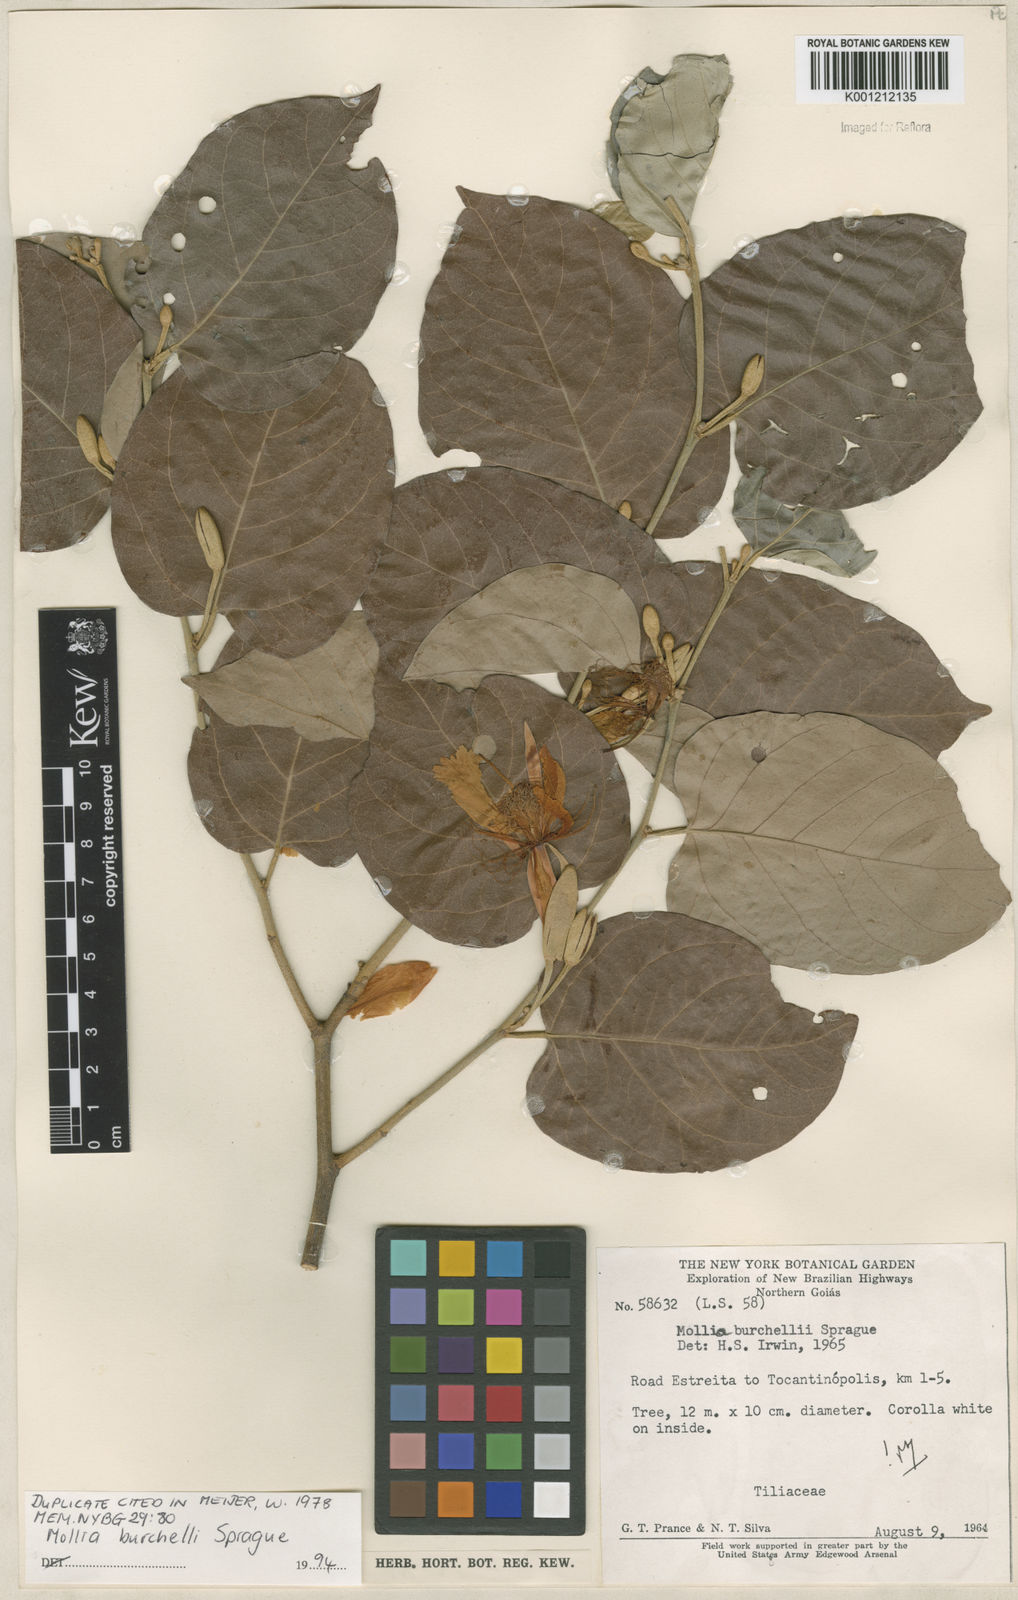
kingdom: Plantae
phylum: Tracheophyta
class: Magnoliopsida
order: Malvales
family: Malvaceae
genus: Mollia
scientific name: Mollia burchellii
